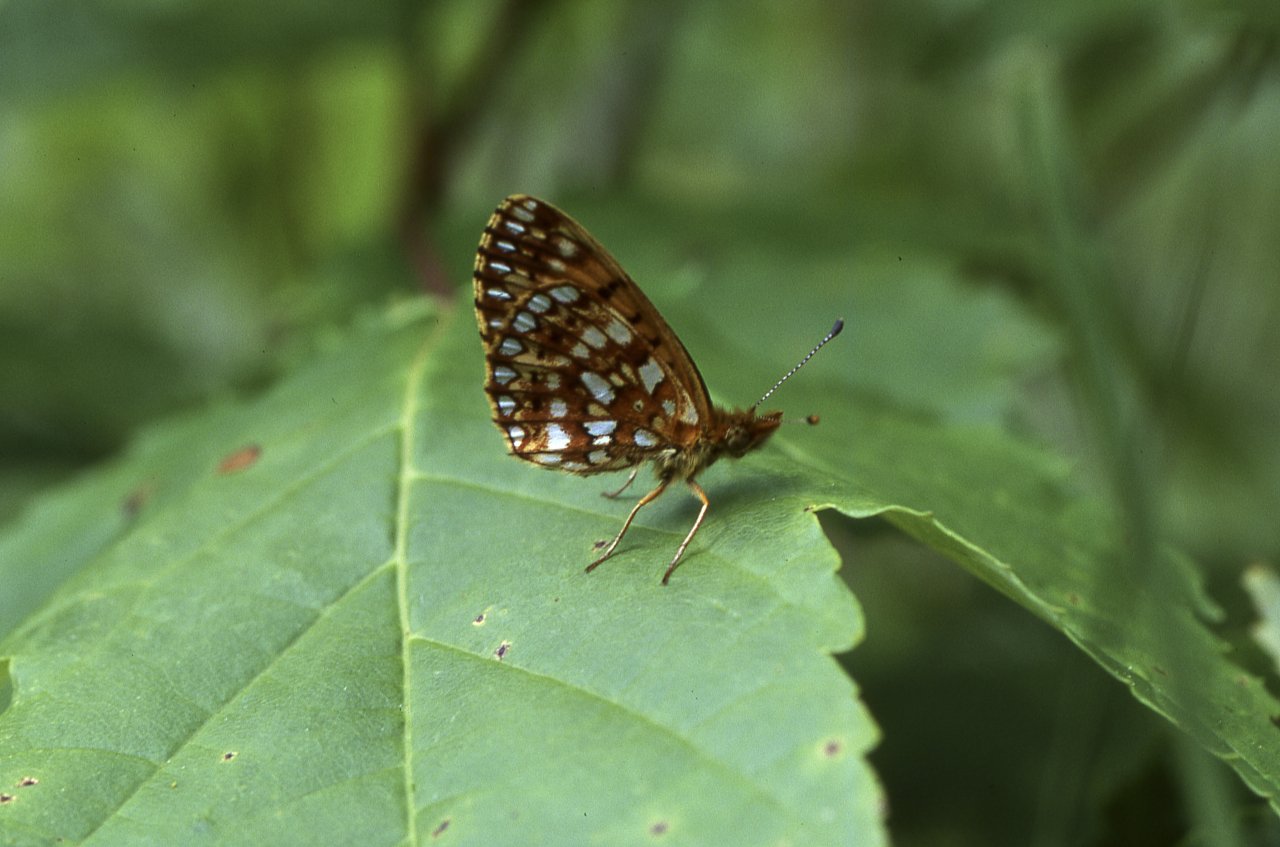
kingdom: Animalia
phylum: Arthropoda
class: Insecta
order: Lepidoptera
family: Nymphalidae
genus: Boloria
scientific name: Boloria selene
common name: Silver-bordered Fritillary
